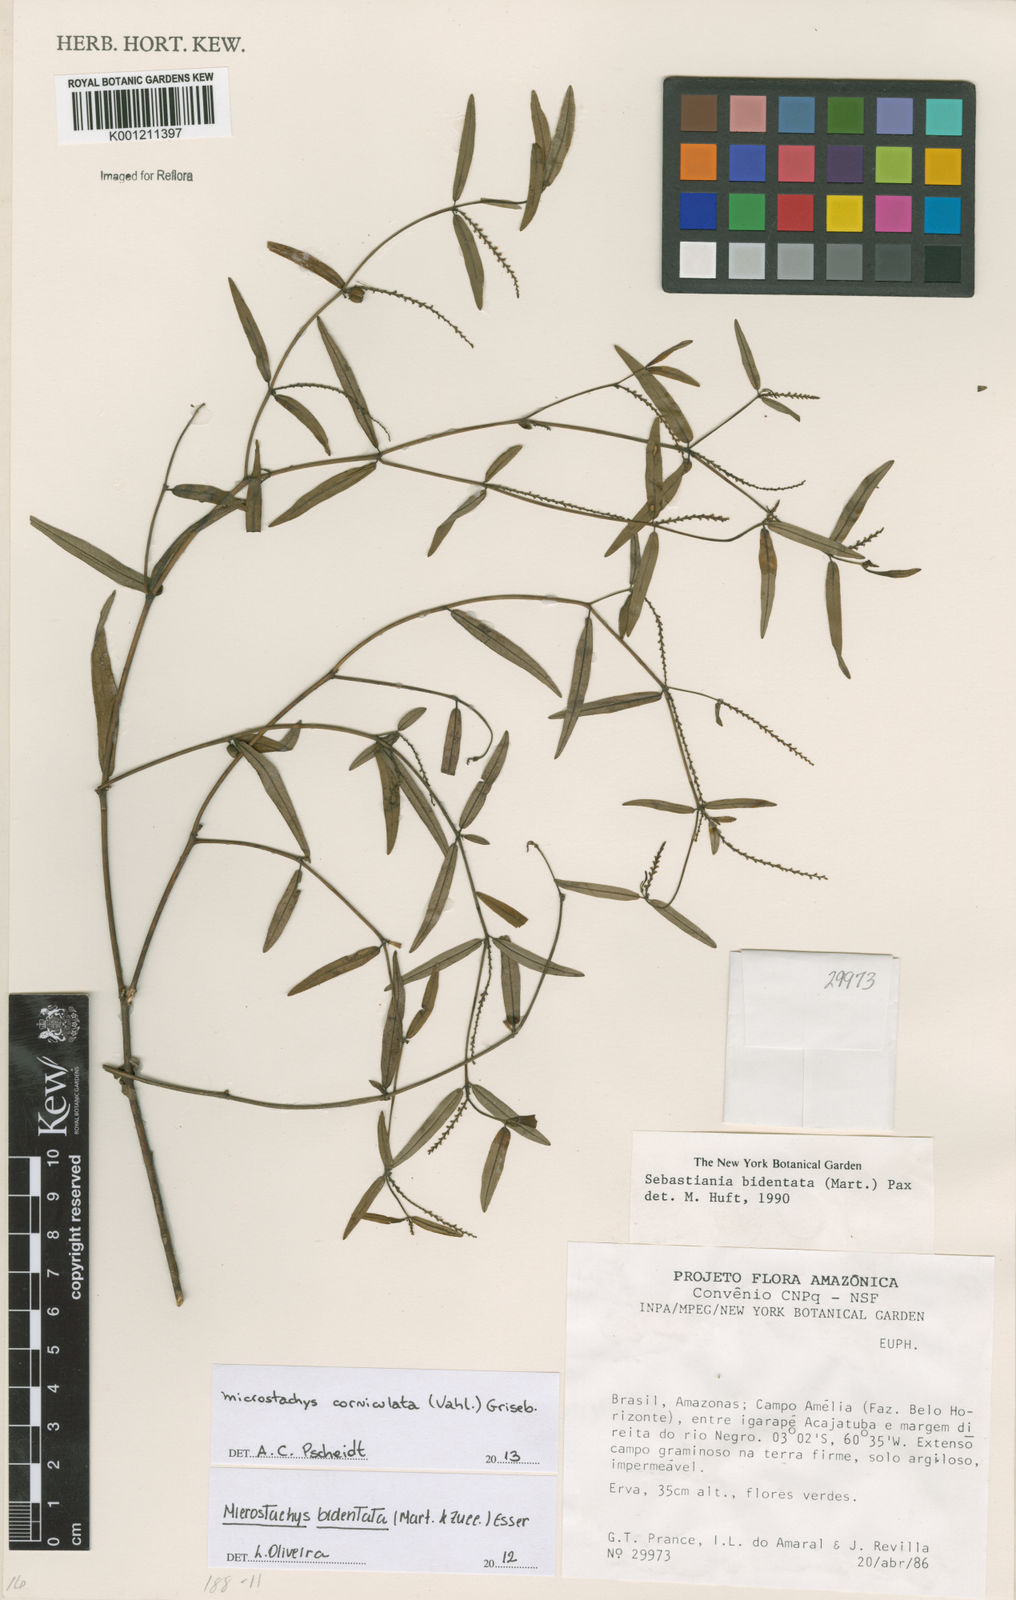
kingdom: Plantae
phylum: Tracheophyta
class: Magnoliopsida
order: Malpighiales
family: Euphorbiaceae
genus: Microstachys
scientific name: Microstachys corniculata
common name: Hato tejas
